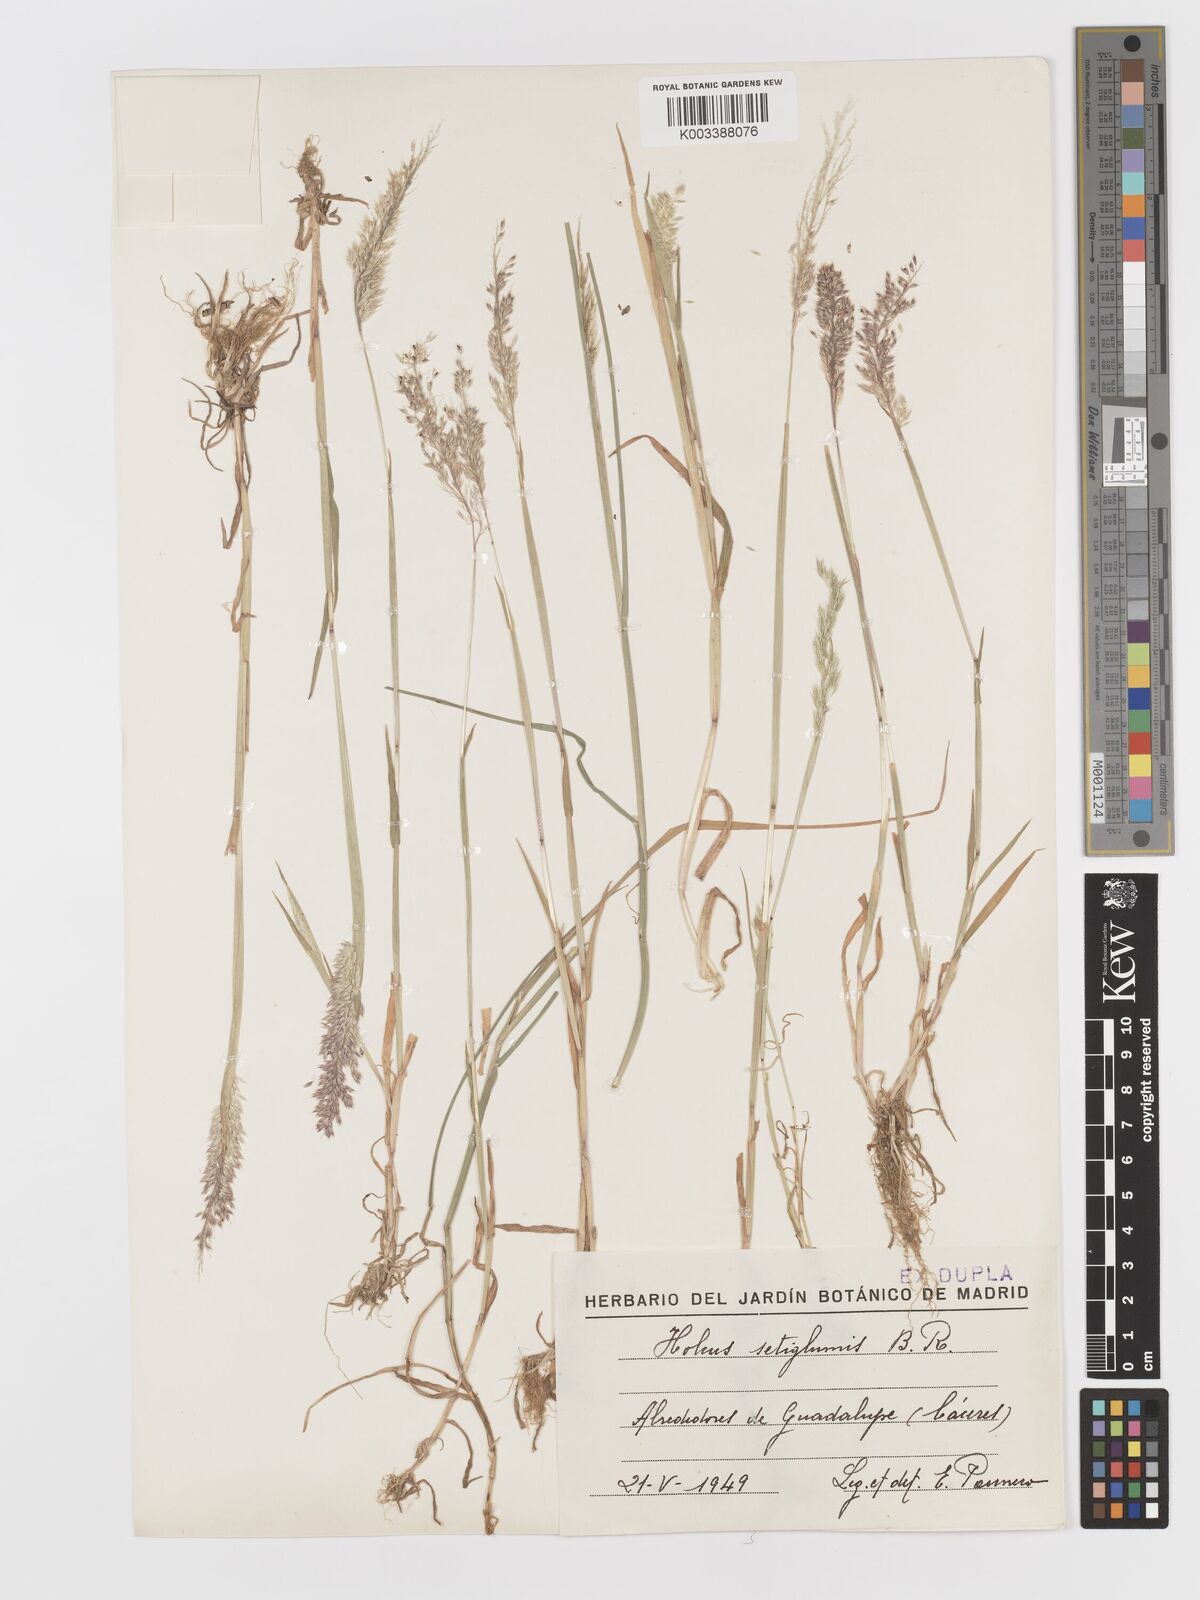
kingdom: Plantae
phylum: Tracheophyta
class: Liliopsida
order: Poales
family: Poaceae
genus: Holcus
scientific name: Holcus annuus
